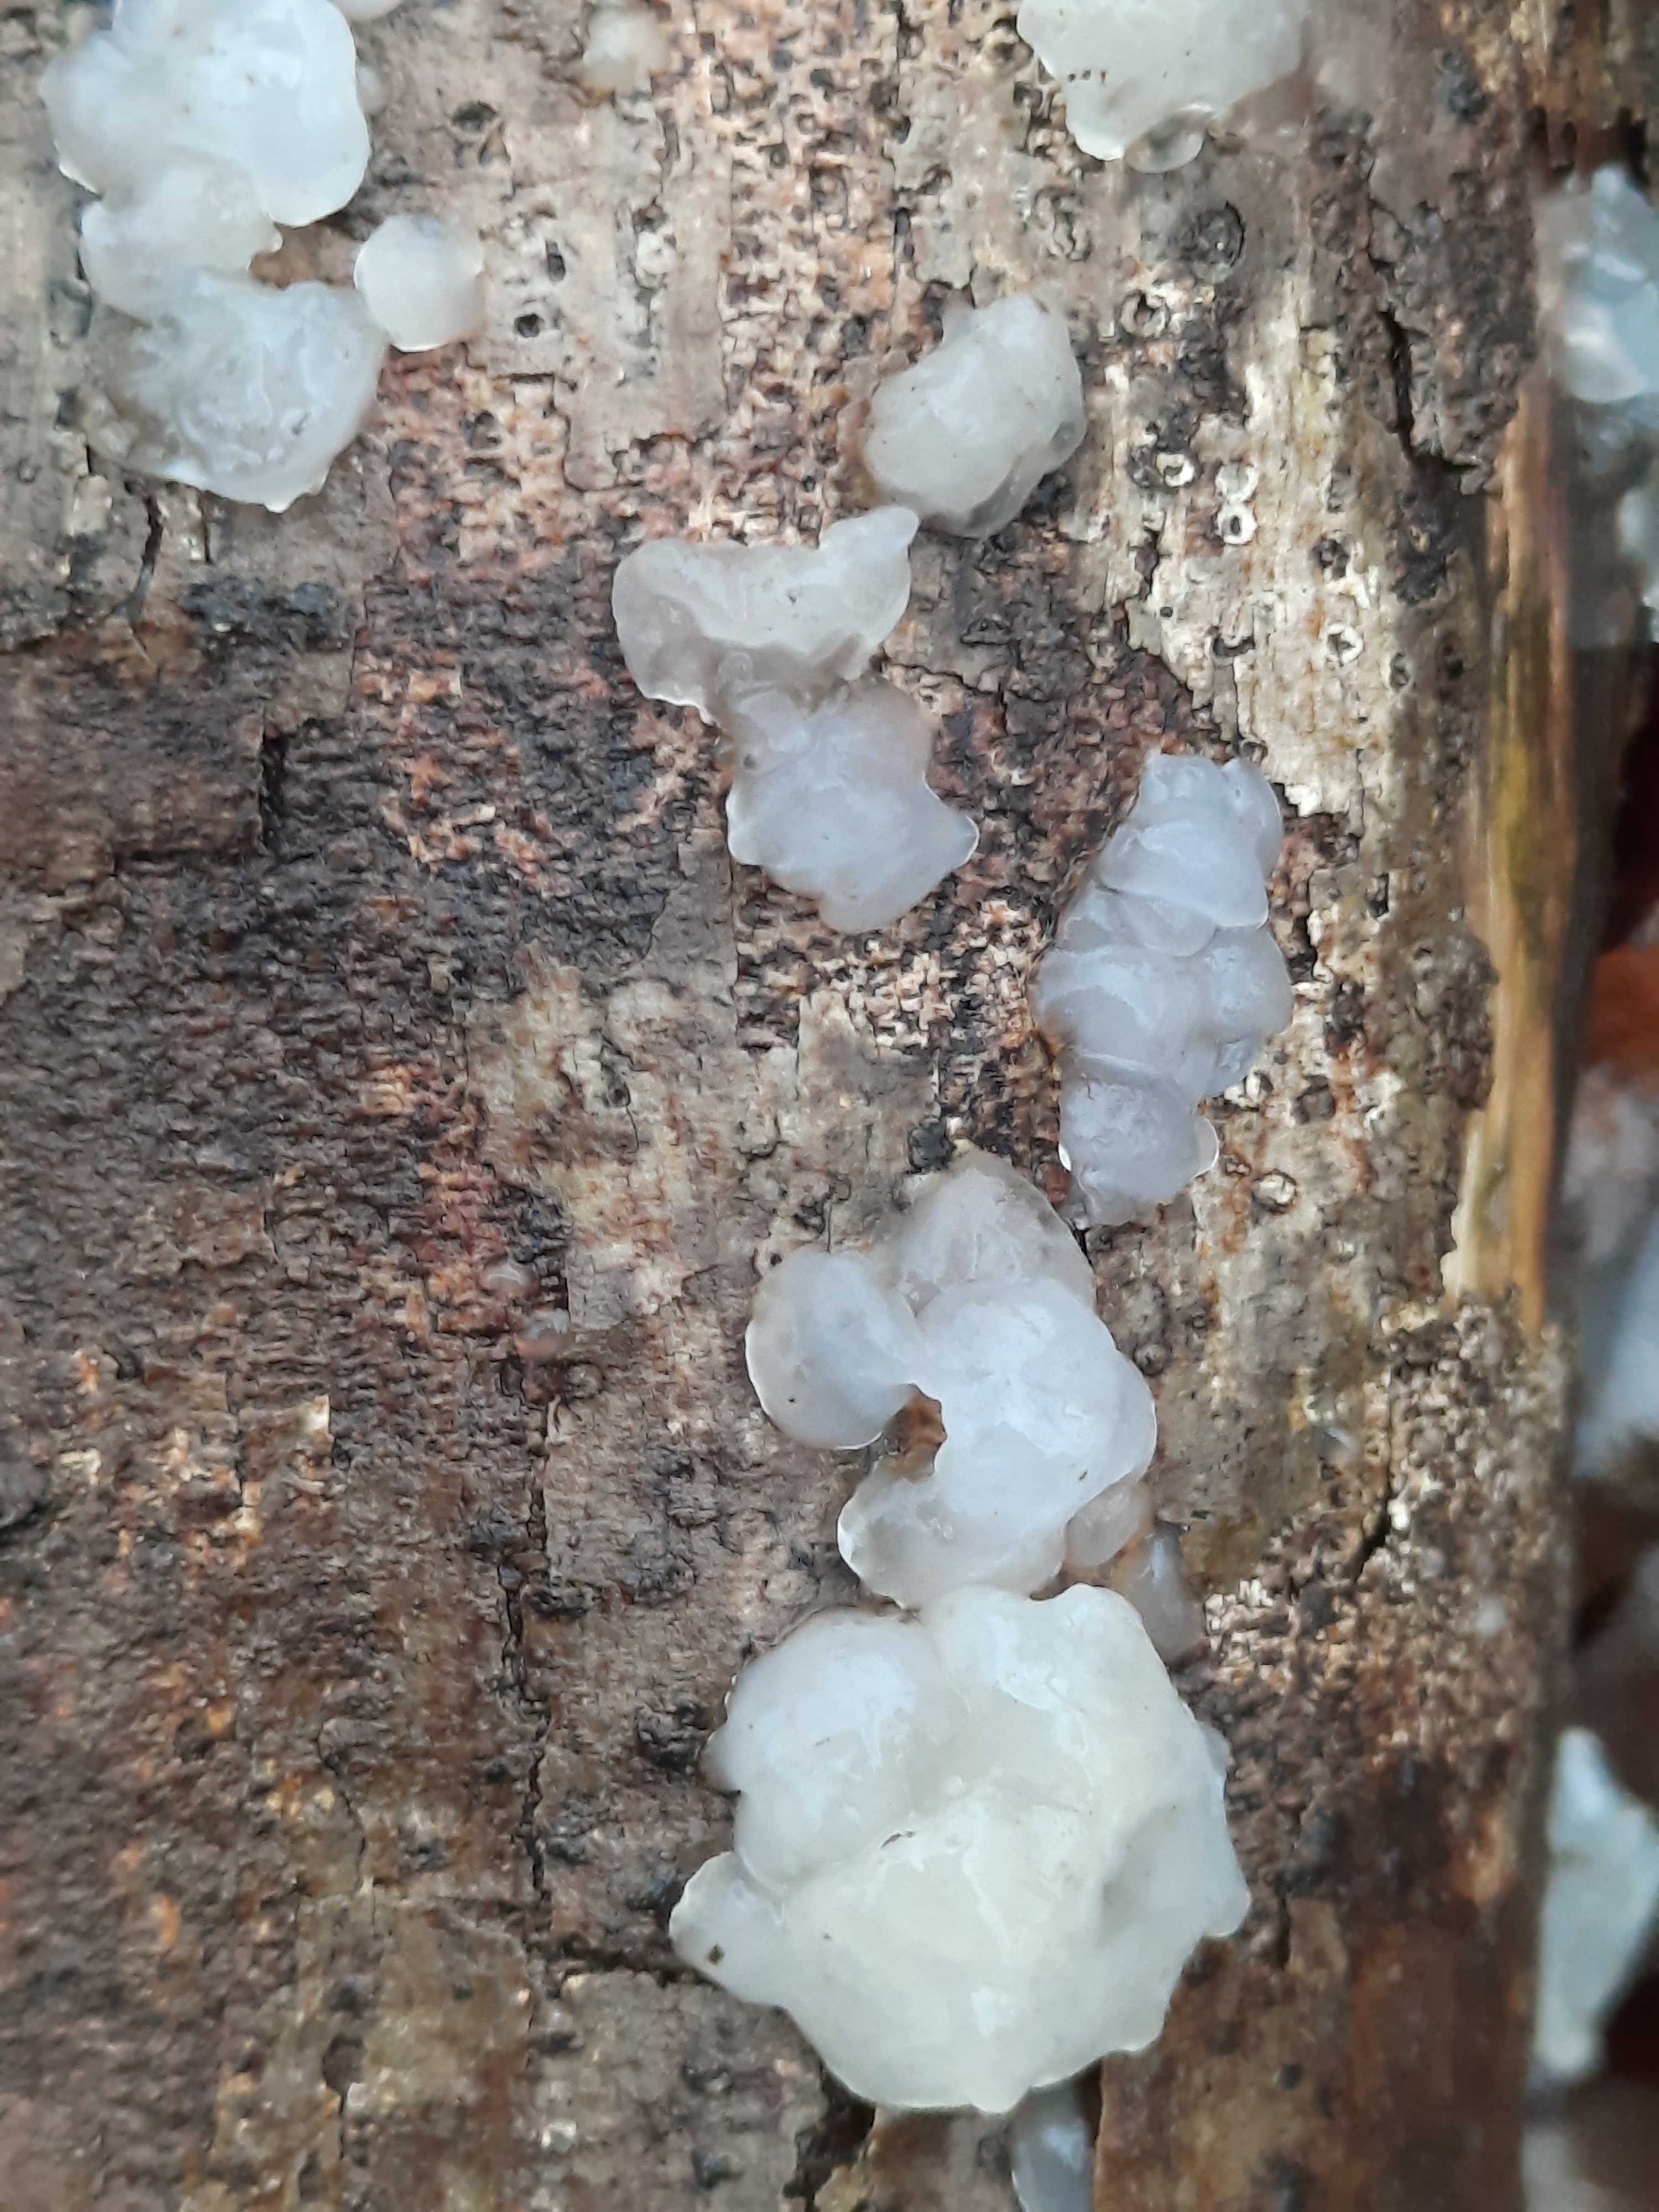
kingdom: Fungi
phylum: Basidiomycota
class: Agaricomycetes
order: Auriculariales
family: Hyaloriaceae
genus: Myxarium
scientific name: Myxarium nucleatum
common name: klar bævretop
